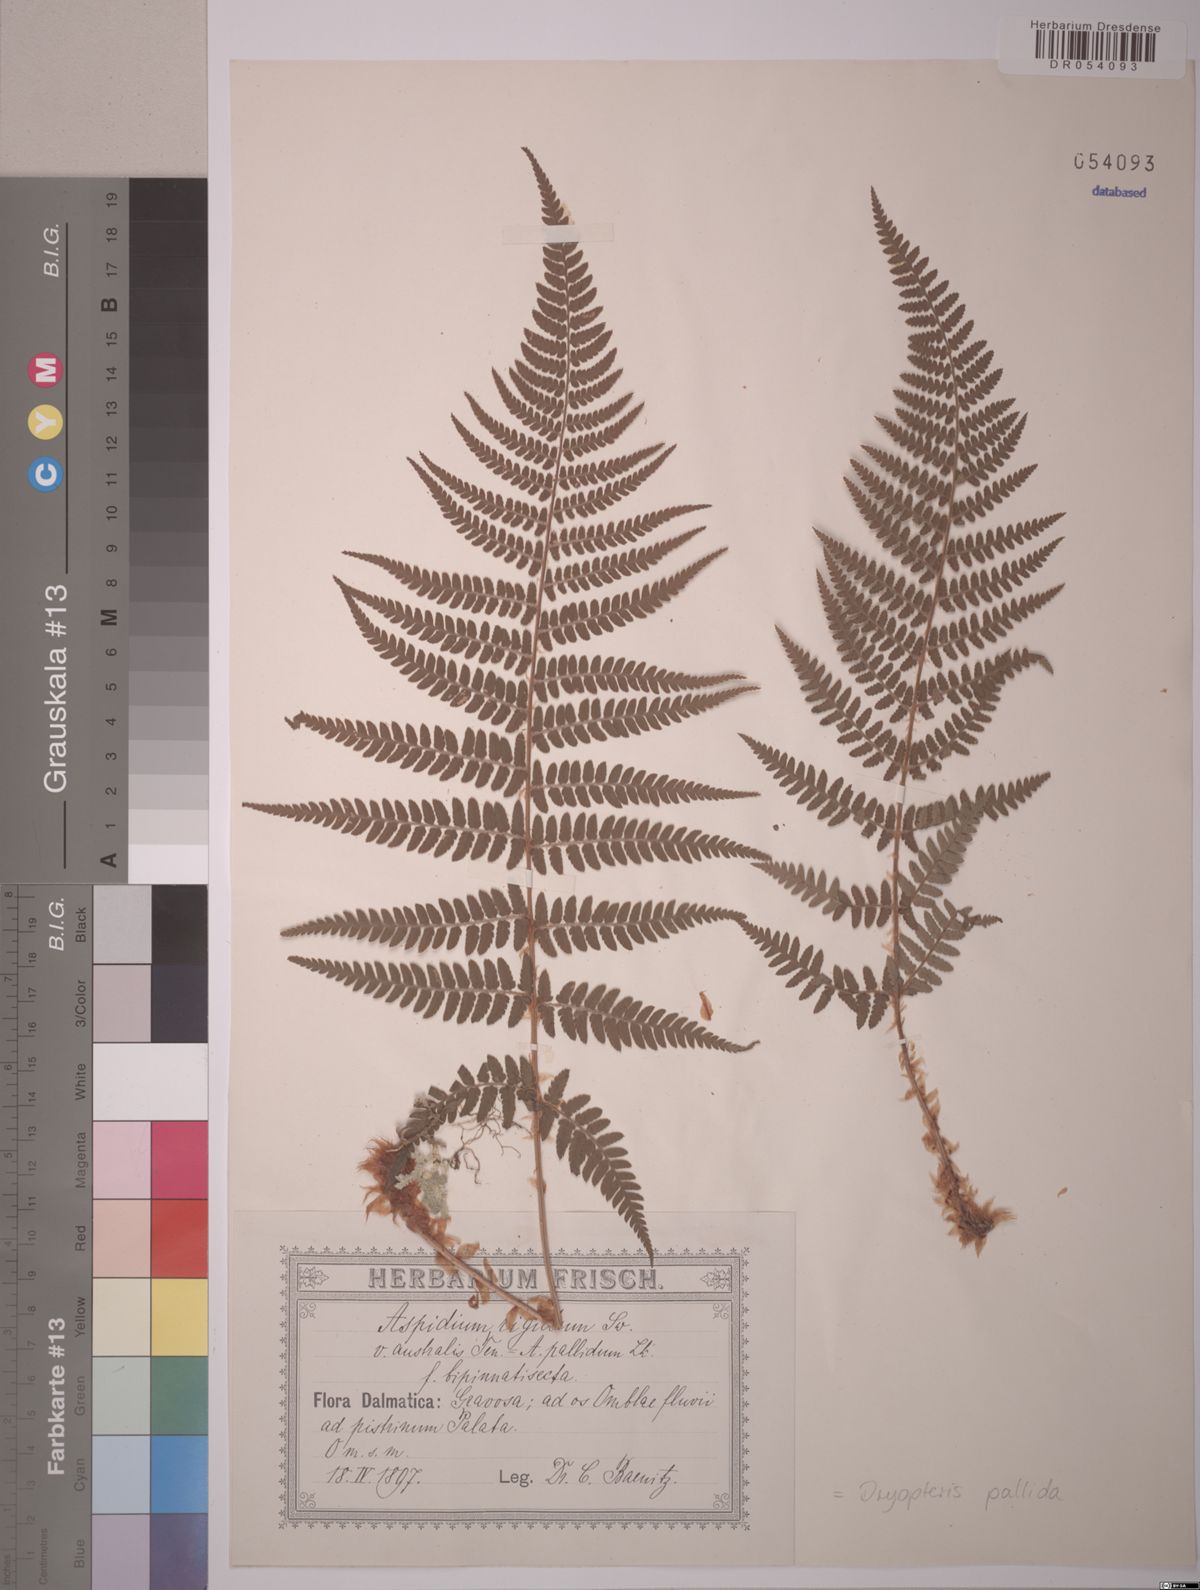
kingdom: Plantae
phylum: Tracheophyta
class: Polypodiopsida
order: Polypodiales
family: Dryopteridaceae
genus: Dryopteris
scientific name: Dryopteris pallida
